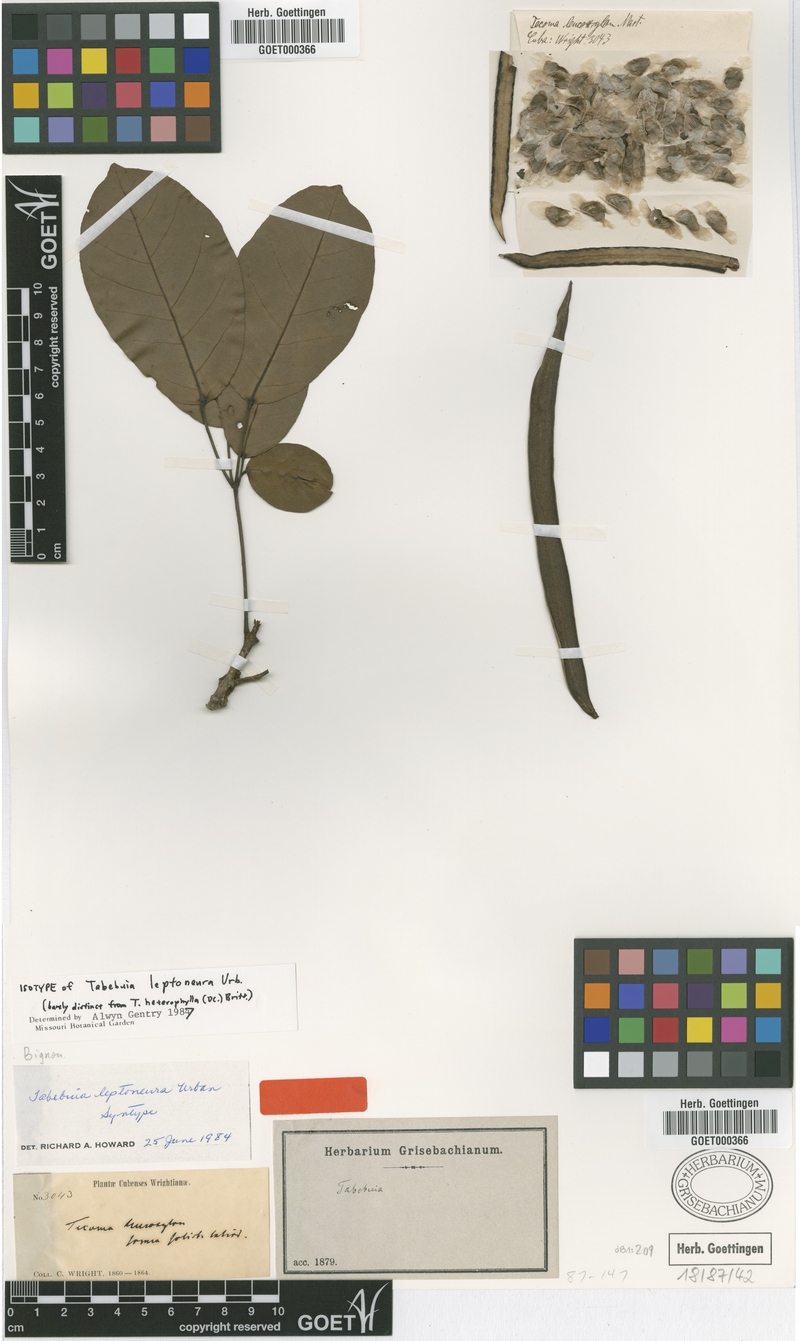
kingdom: Plantae
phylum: Tracheophyta
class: Magnoliopsida
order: Lamiales
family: Bignoniaceae
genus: Tabebuia
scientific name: Tabebuia leptoneura
